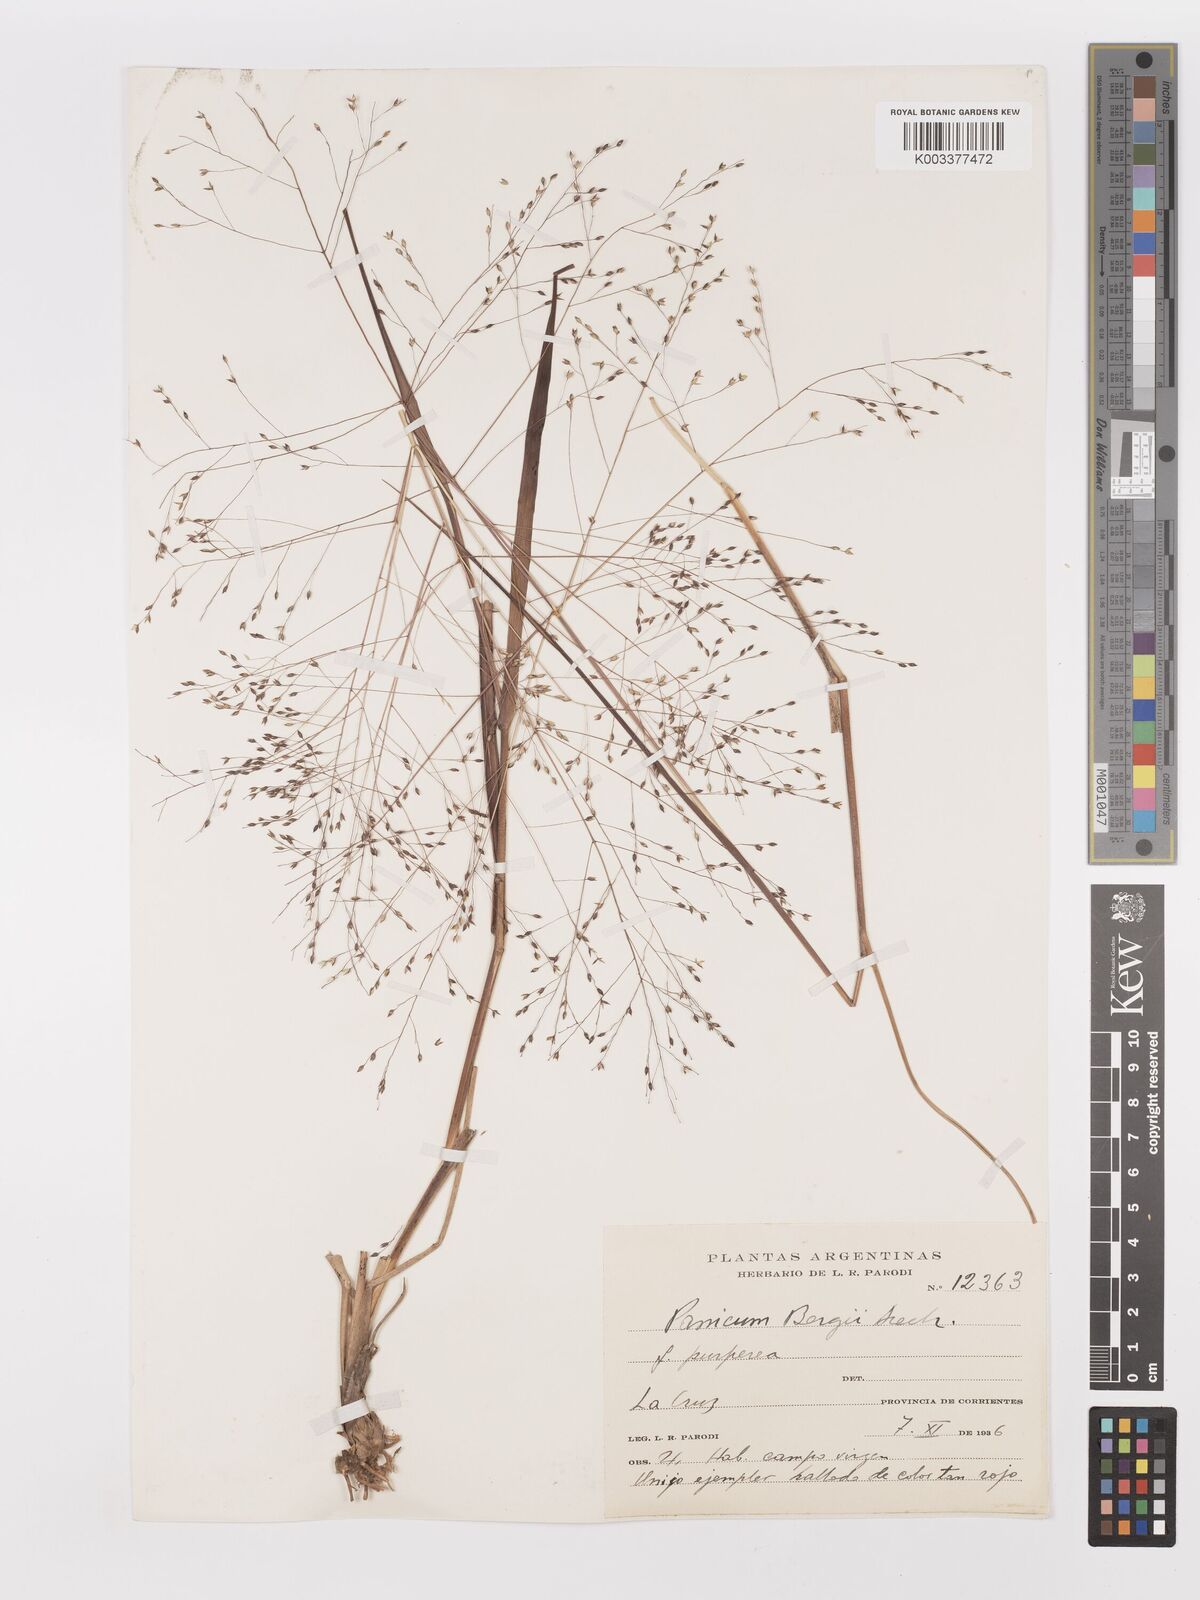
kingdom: Plantae
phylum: Tracheophyta
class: Liliopsida
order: Poales
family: Poaceae
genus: Panicum
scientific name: Panicum bergii
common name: Berg's panicgrass
